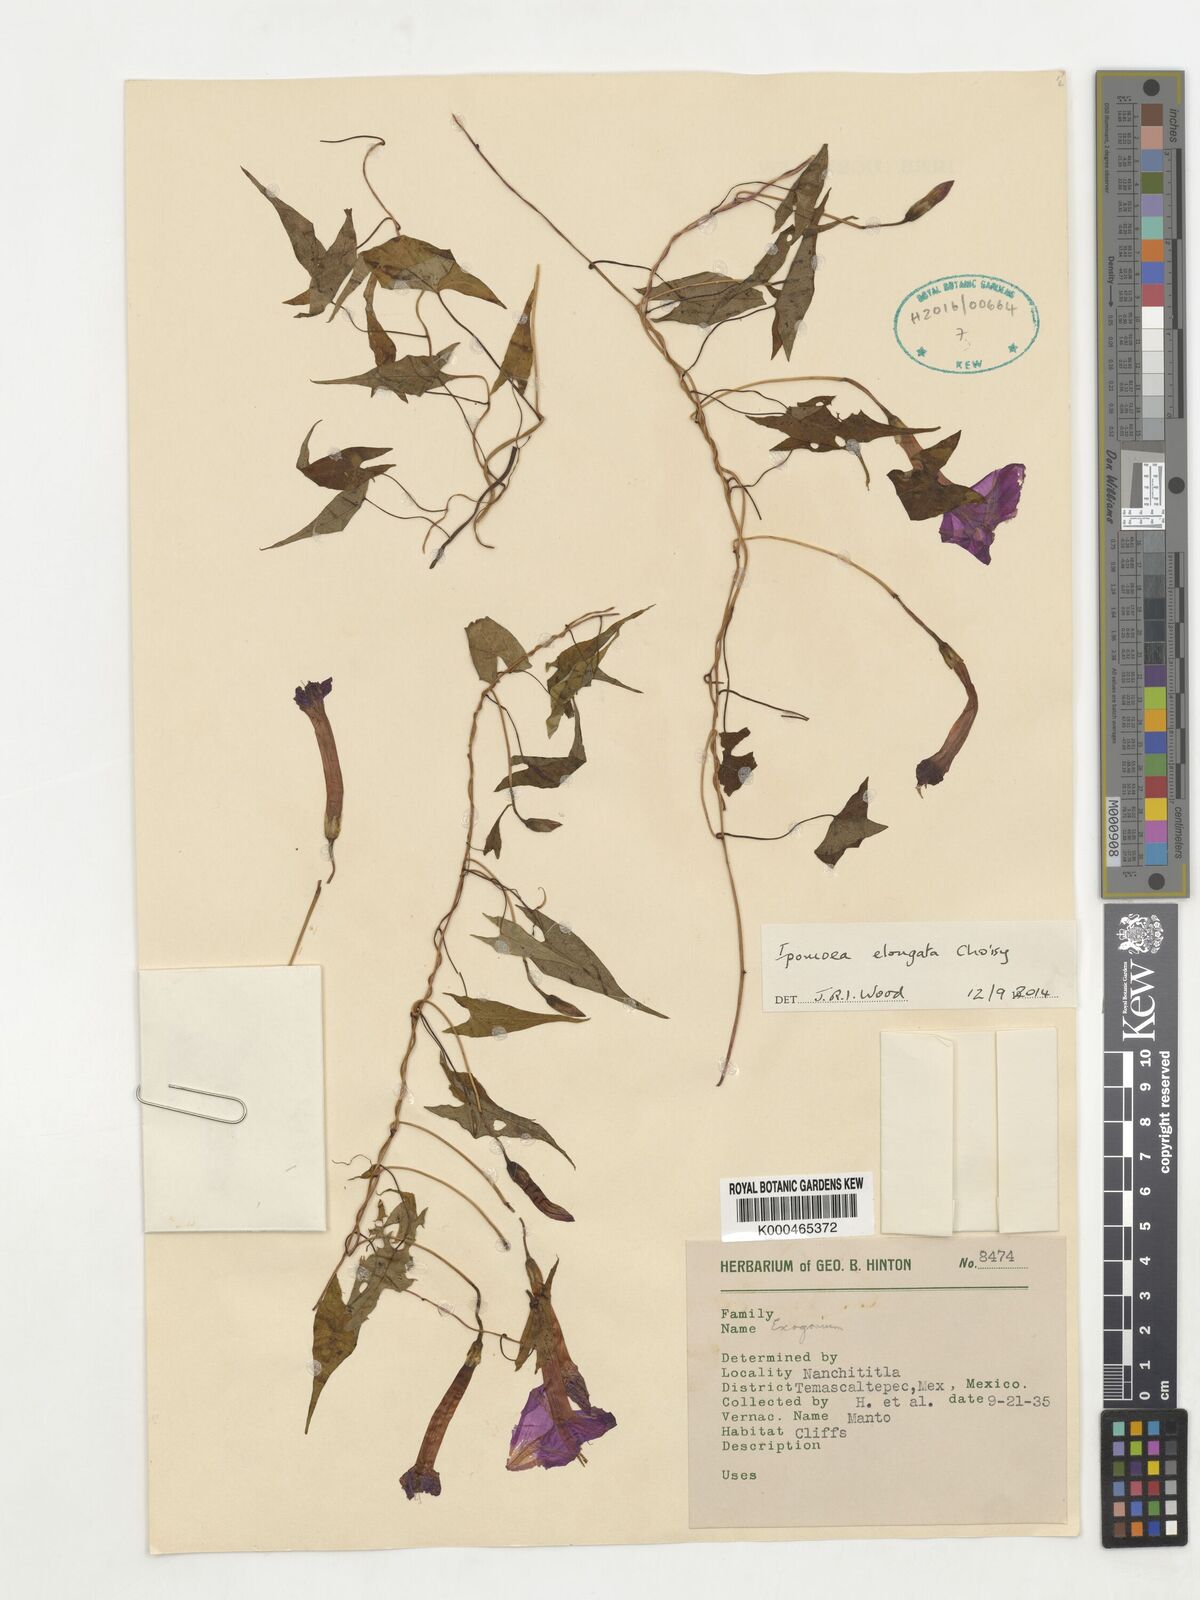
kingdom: Plantae
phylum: Tracheophyta
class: Magnoliopsida
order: Solanales
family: Convolvulaceae
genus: Ipomoea
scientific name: Ipomoea elongata
